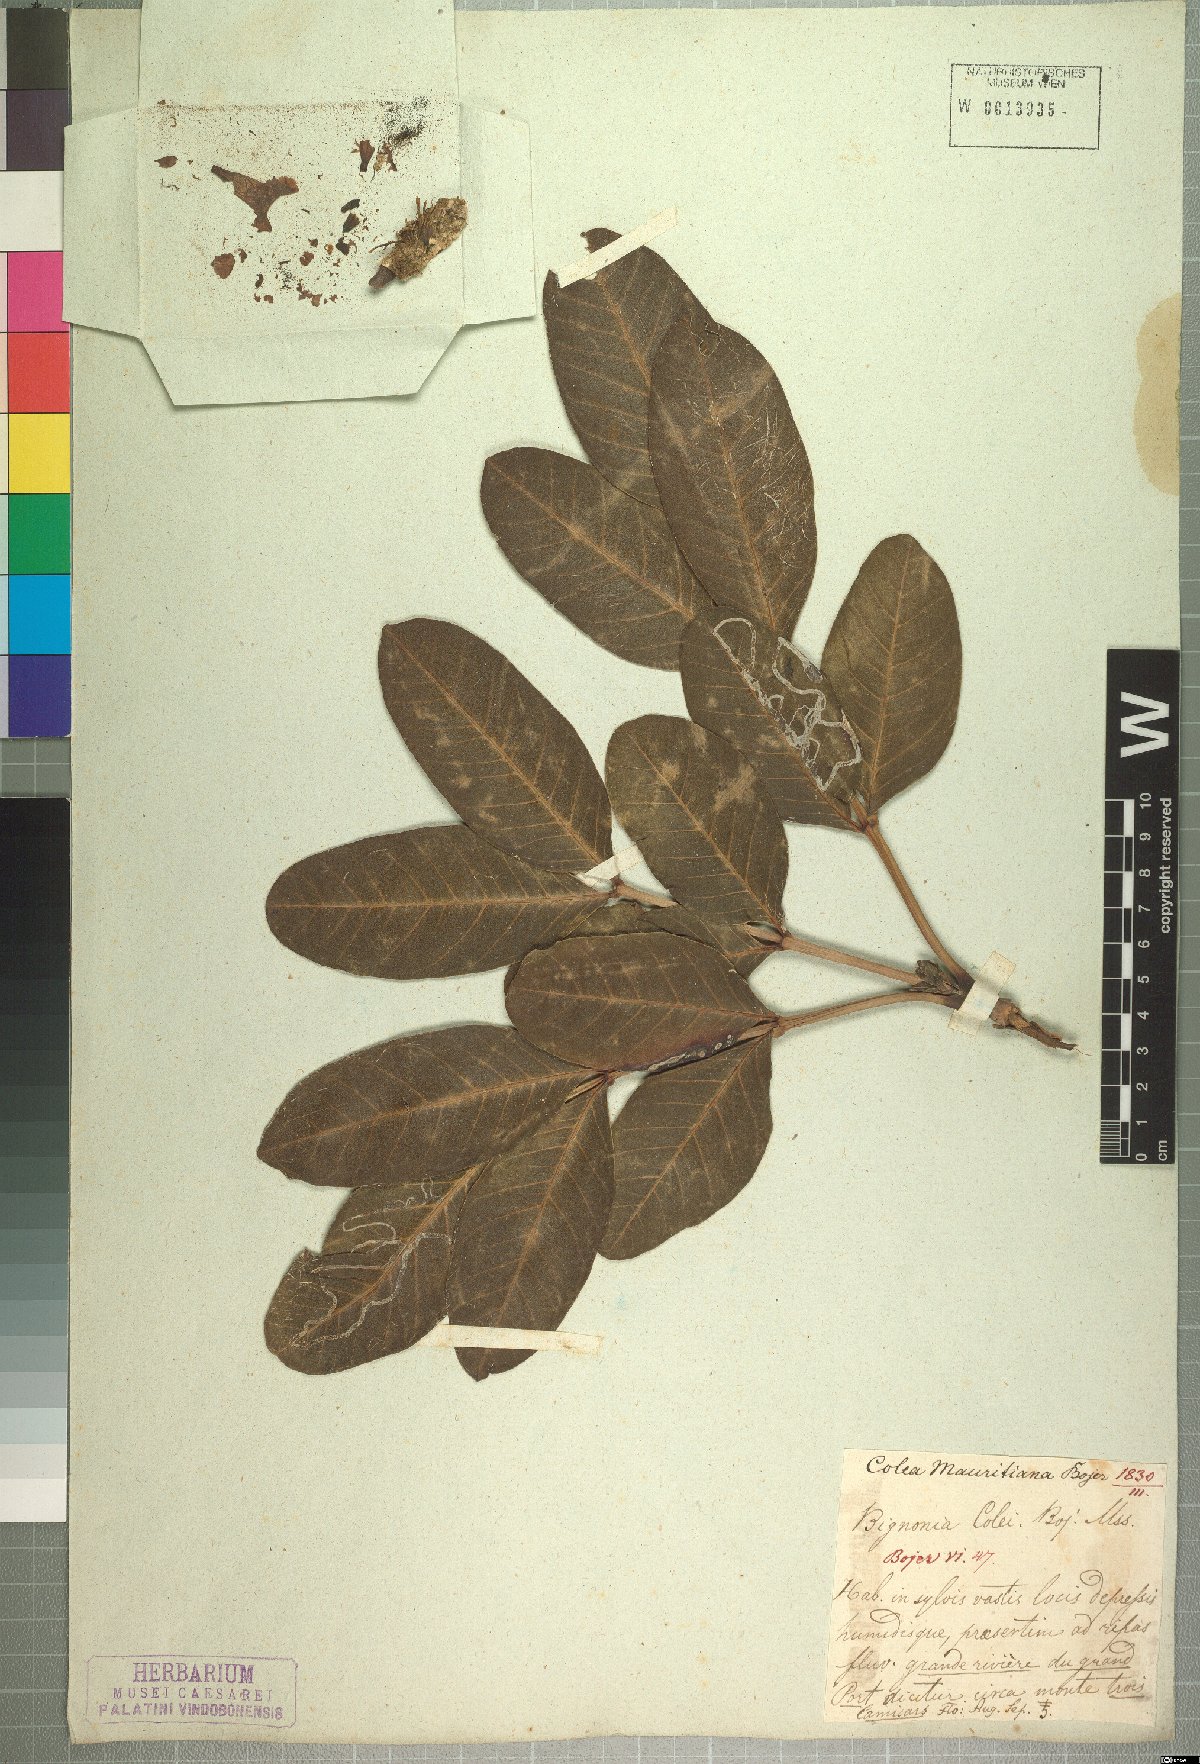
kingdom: Plantae
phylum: Tracheophyta
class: Magnoliopsida
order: Lamiales
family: Bignoniaceae
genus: Colea
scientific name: Colea colei
